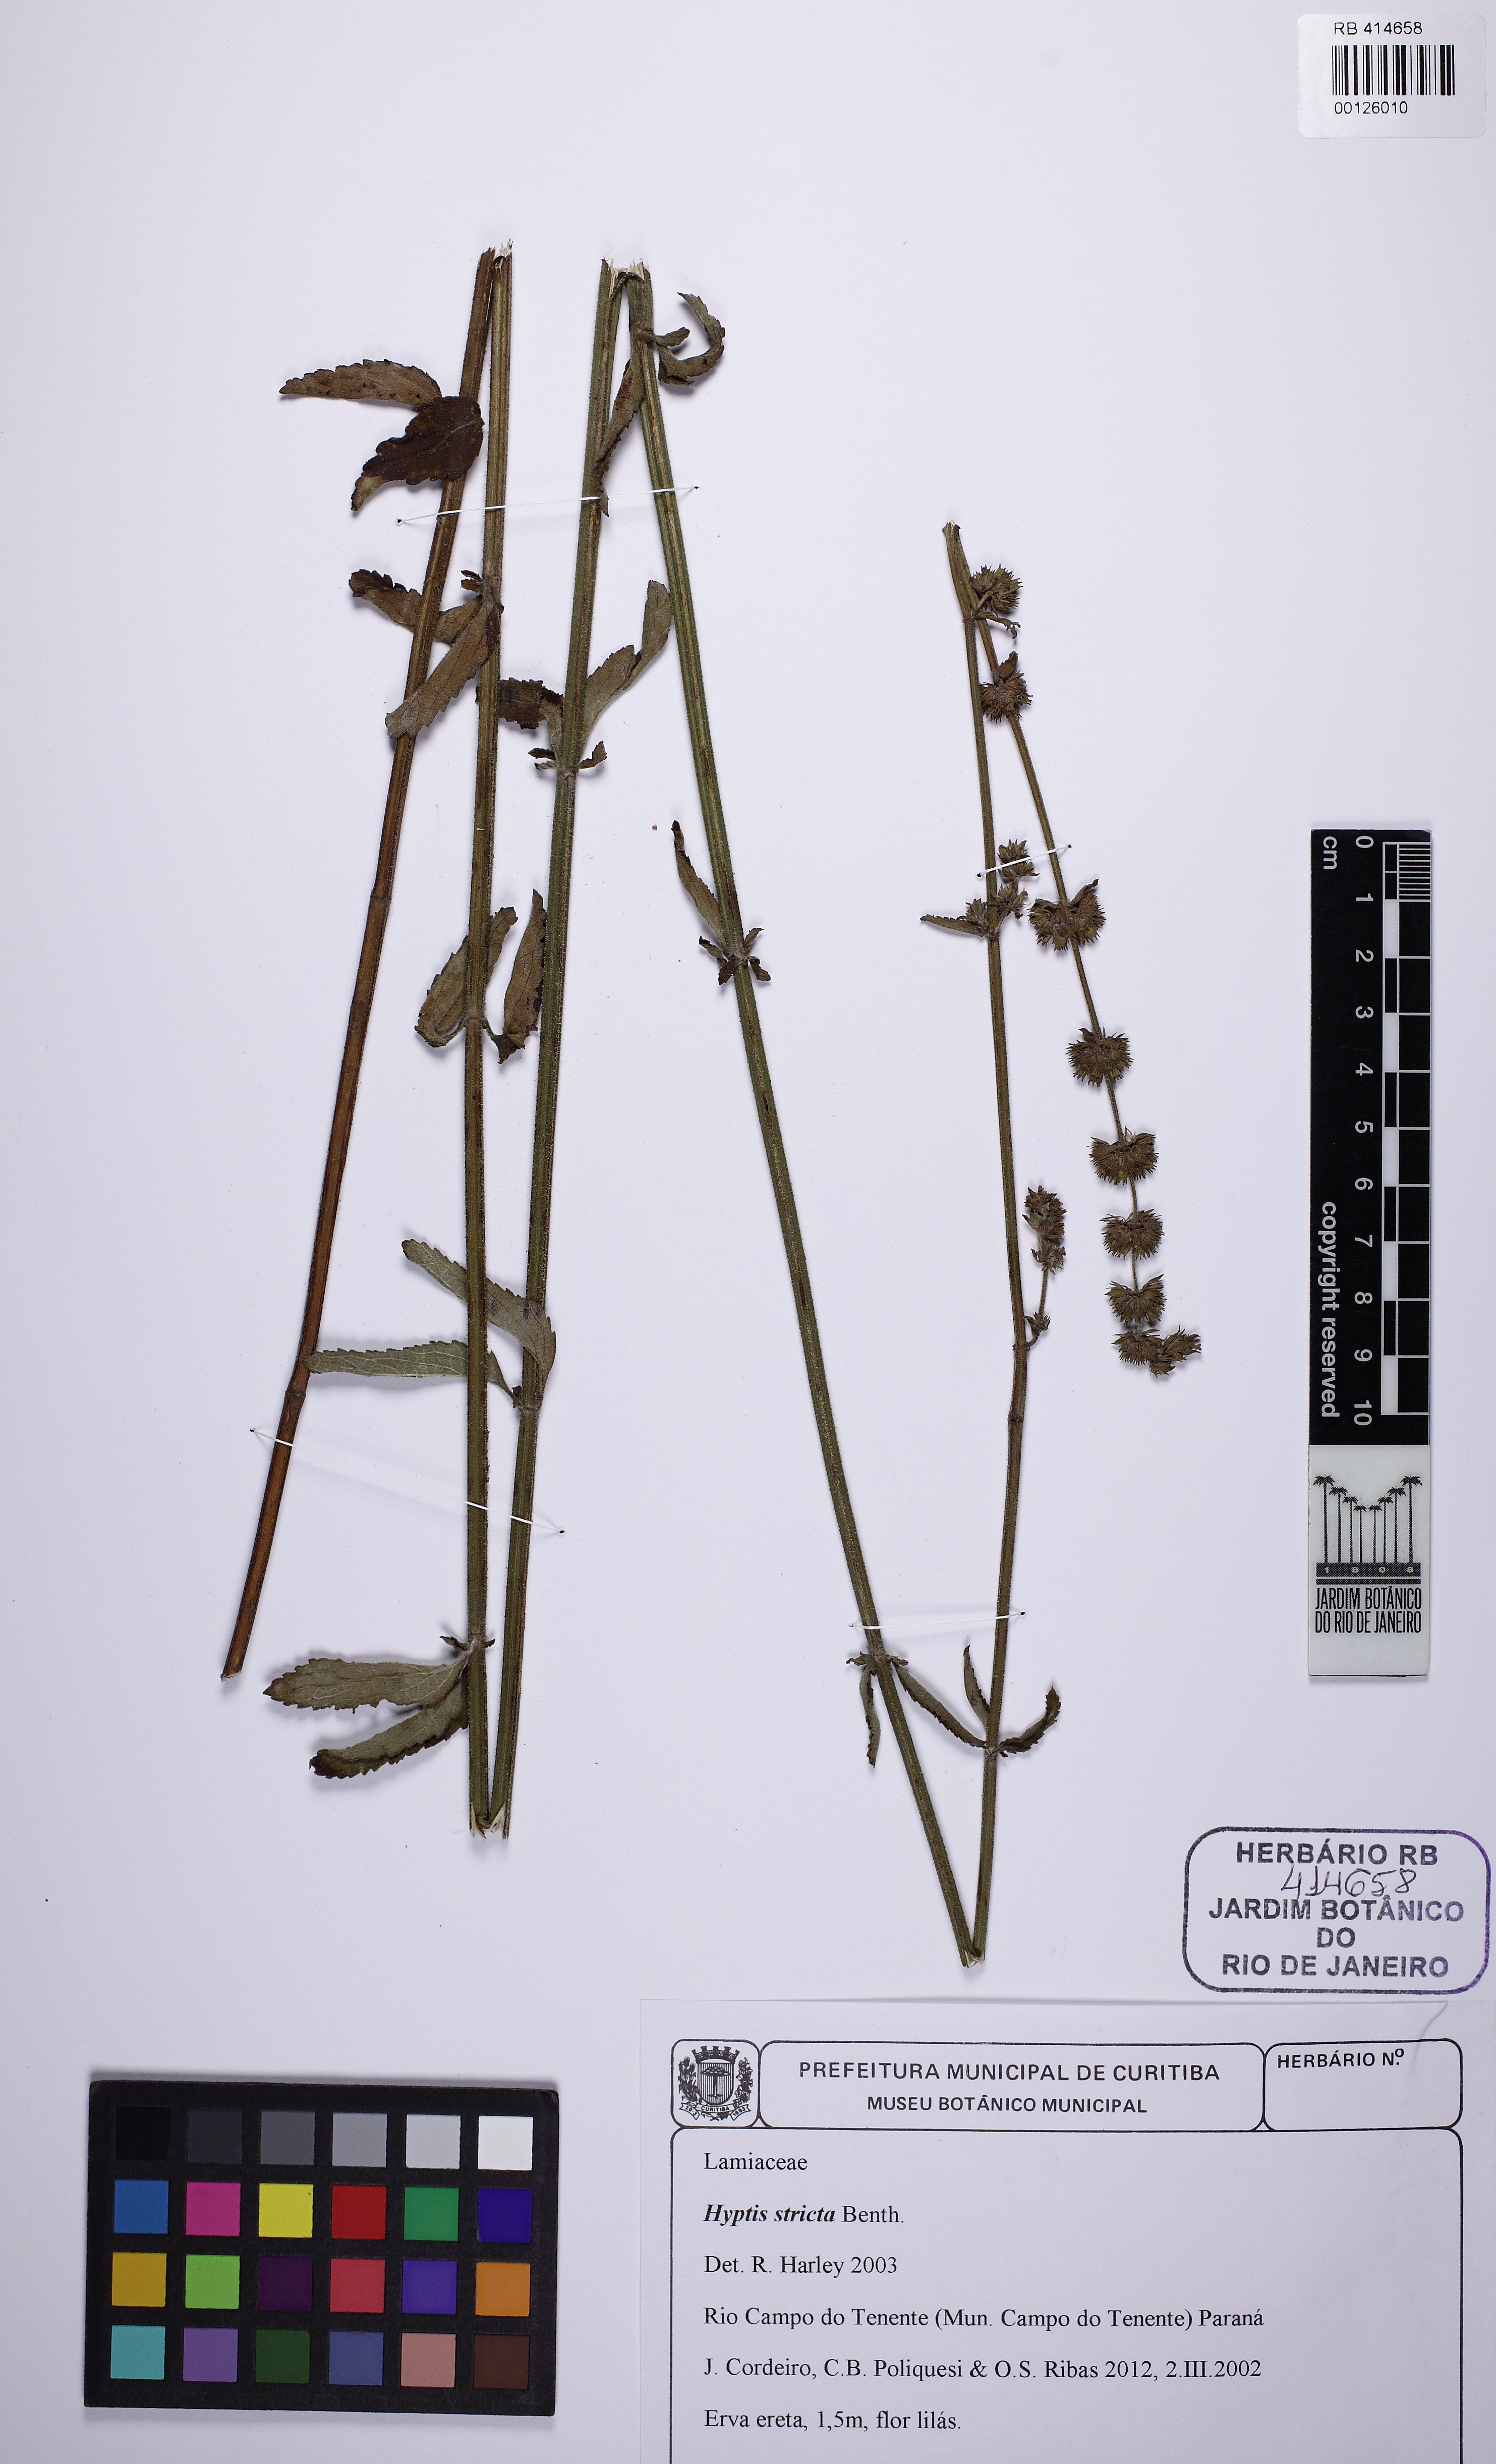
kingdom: Plantae
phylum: Tracheophyta
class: Magnoliopsida
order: Lamiales
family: Lamiaceae
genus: Cantinoa
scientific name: Cantinoa stricta
